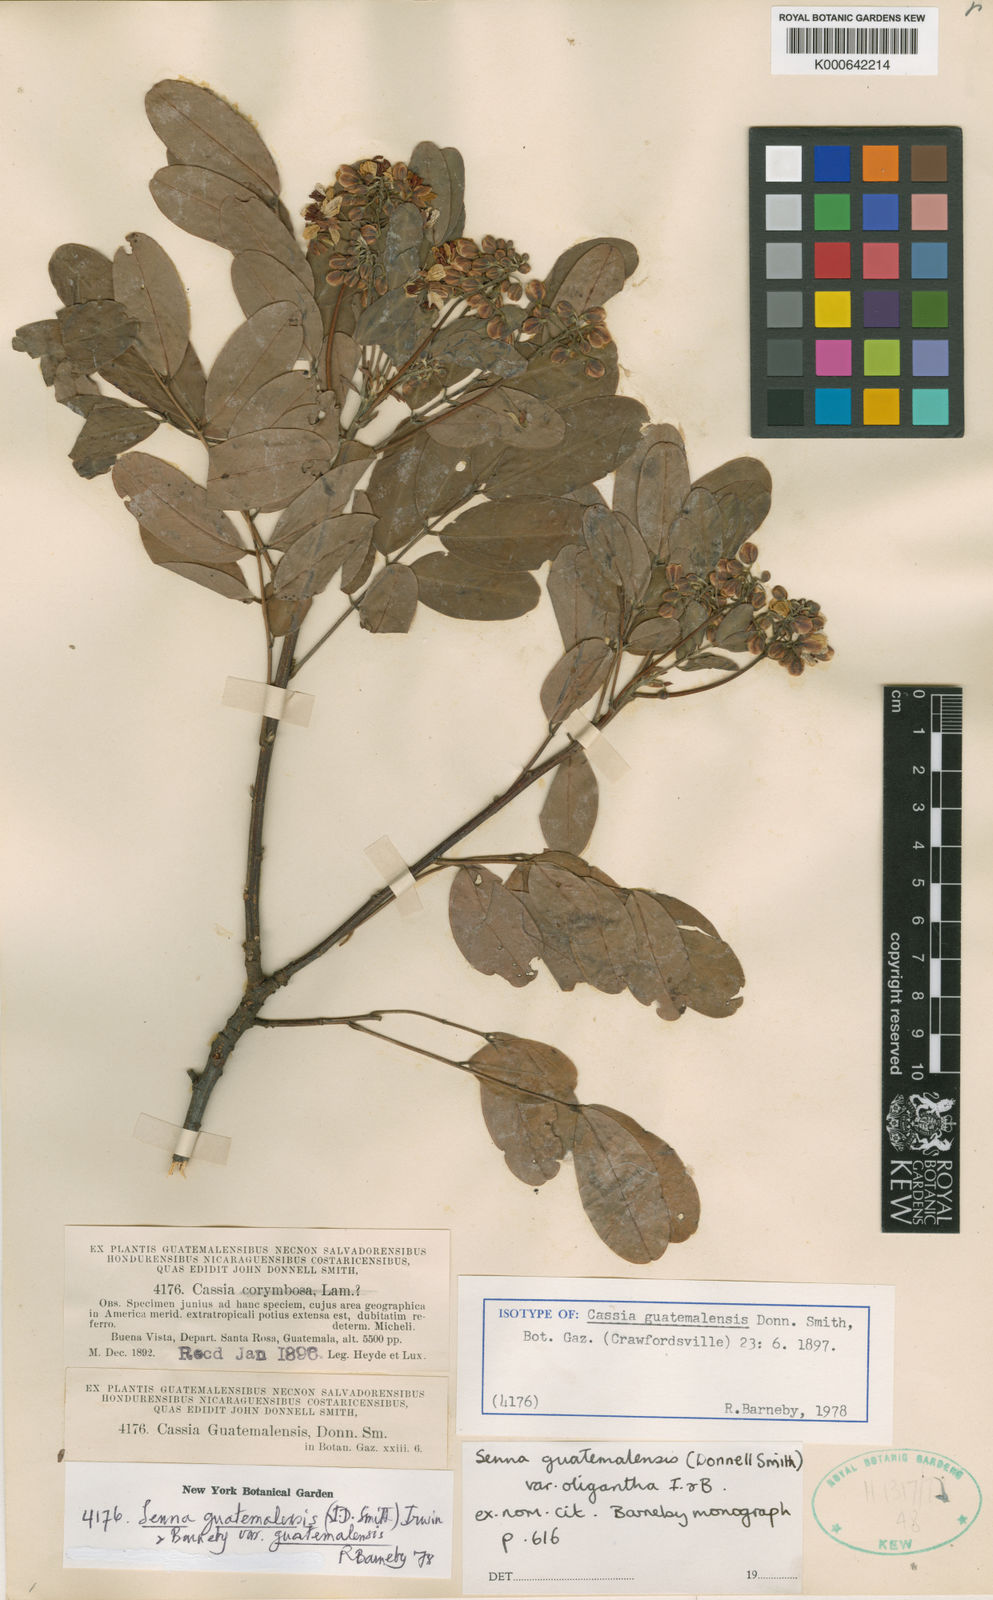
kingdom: Plantae
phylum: Tracheophyta
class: Magnoliopsida
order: Fabales
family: Fabaceae
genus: Senna
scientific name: Senna guatemalensis
